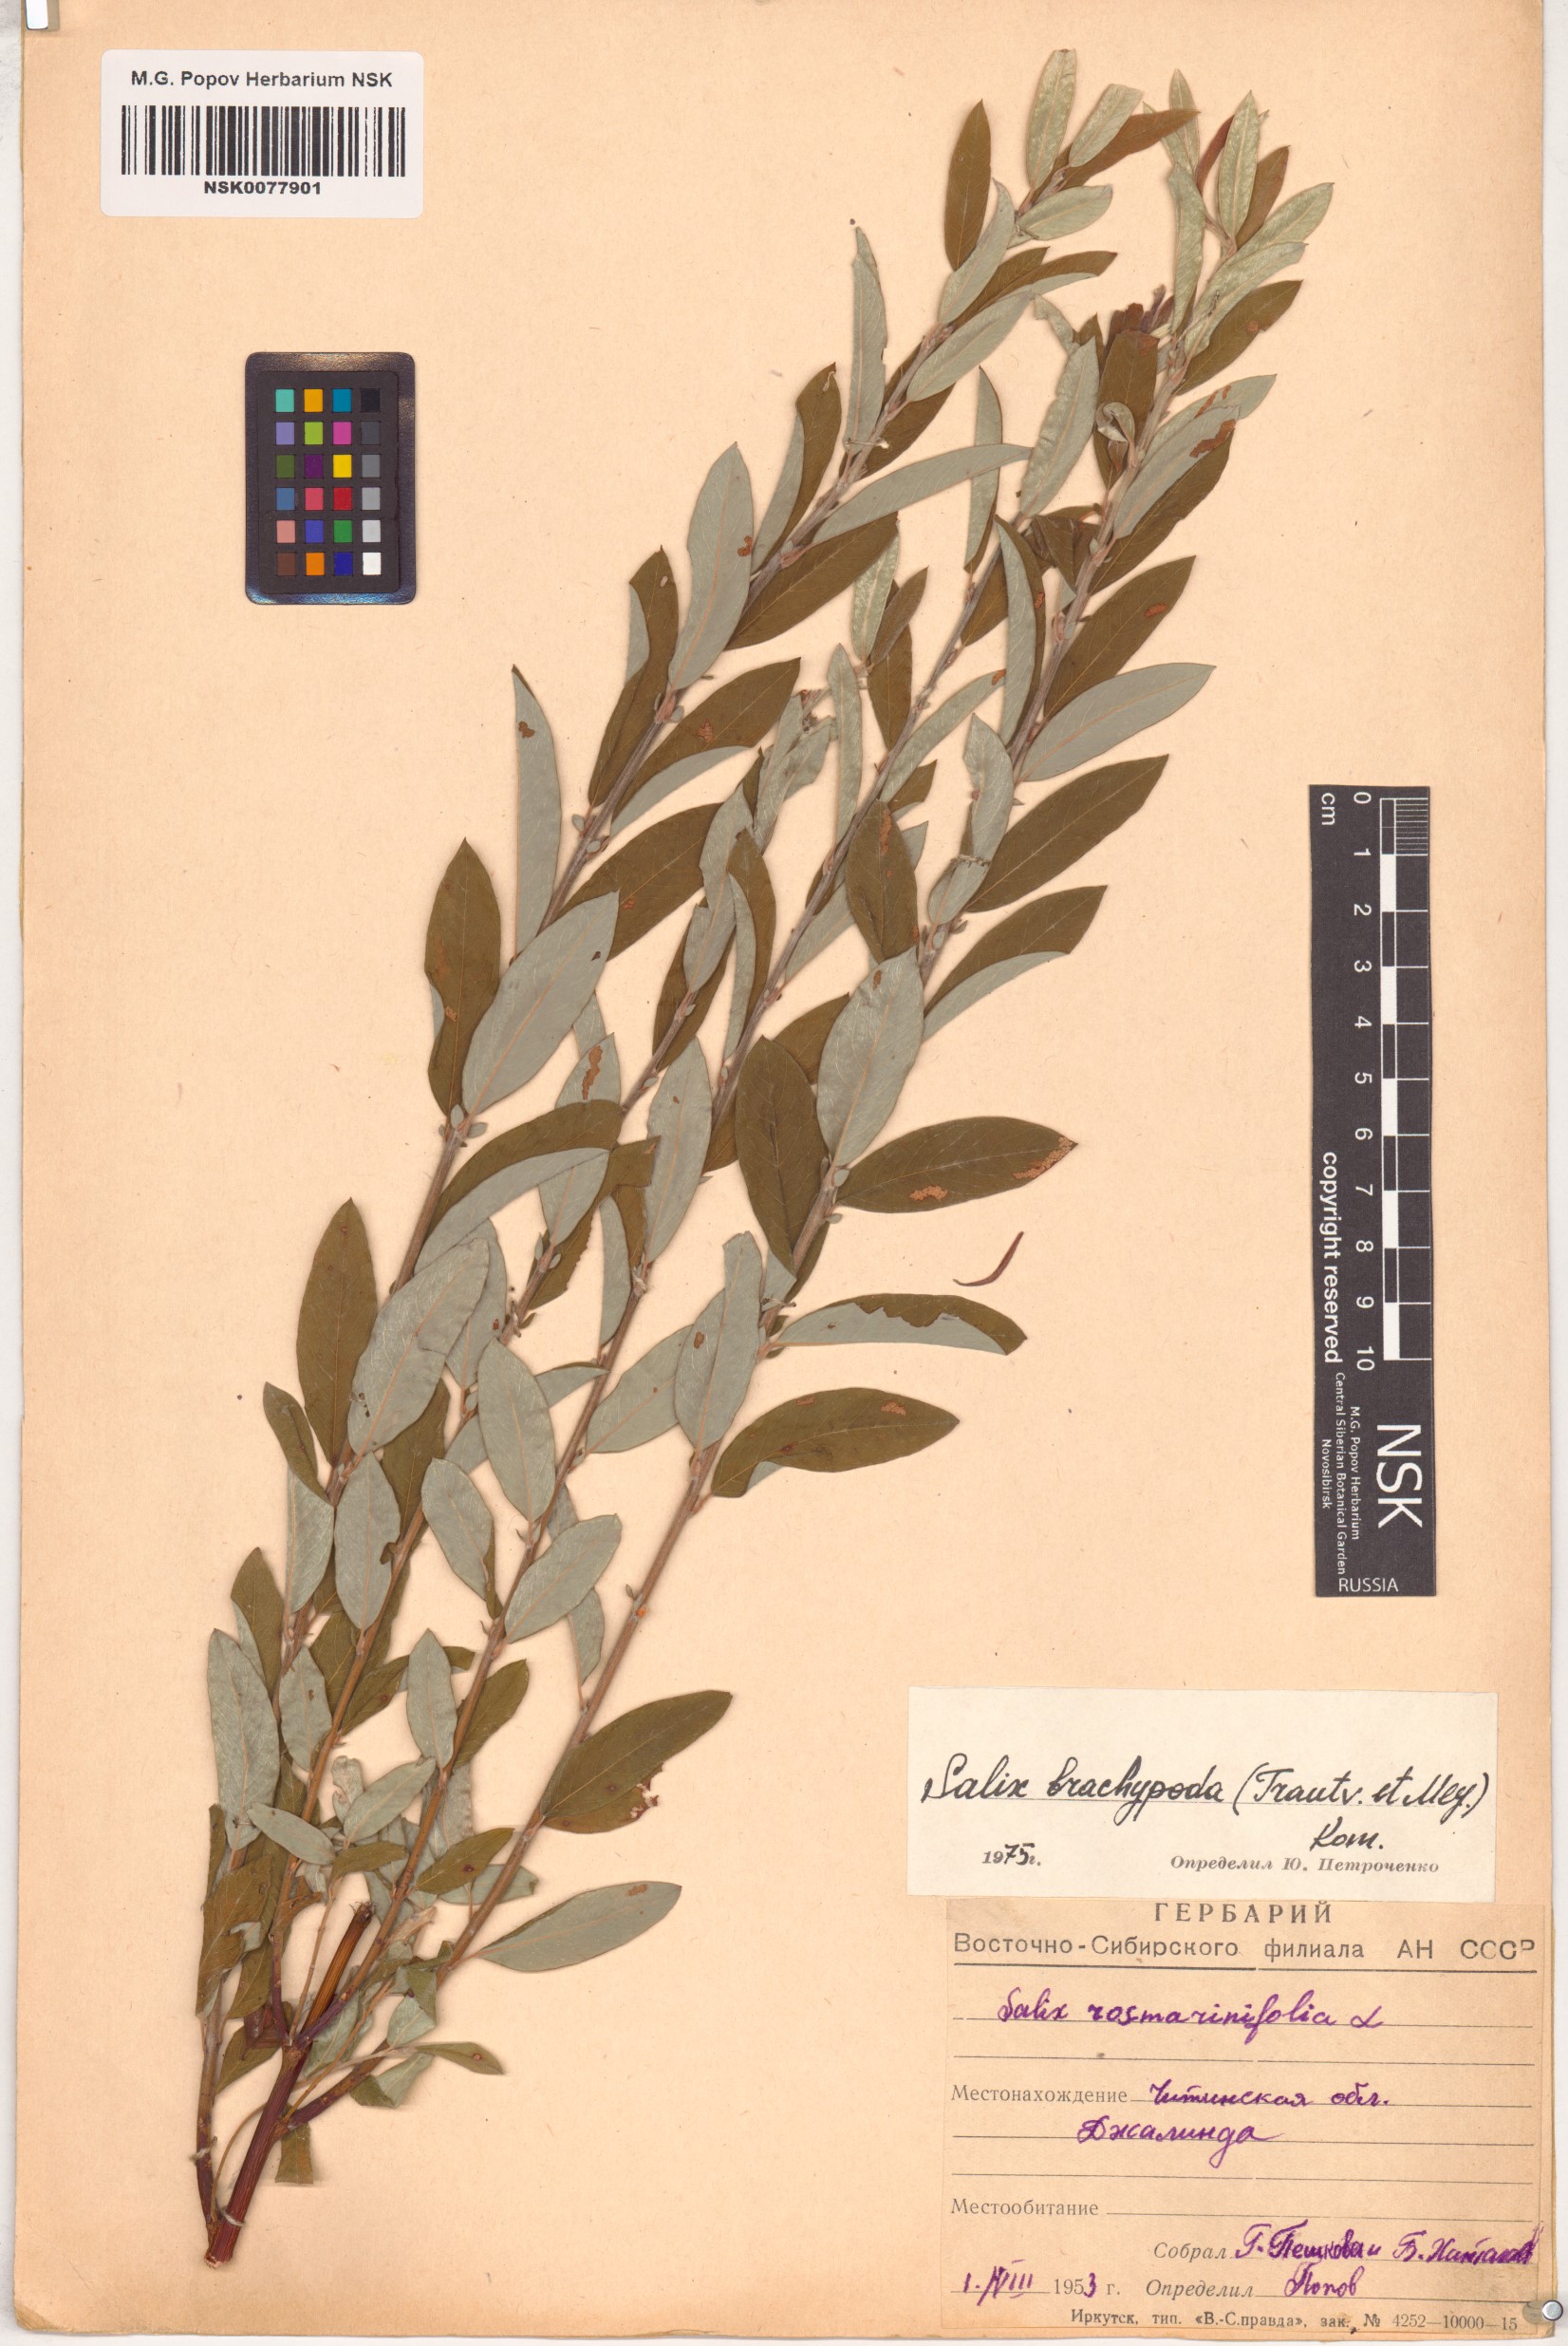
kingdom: Plantae
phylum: Tracheophyta
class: Magnoliopsida
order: Malpighiales
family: Salicaceae
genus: Salix
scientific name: Salix brachypoda
